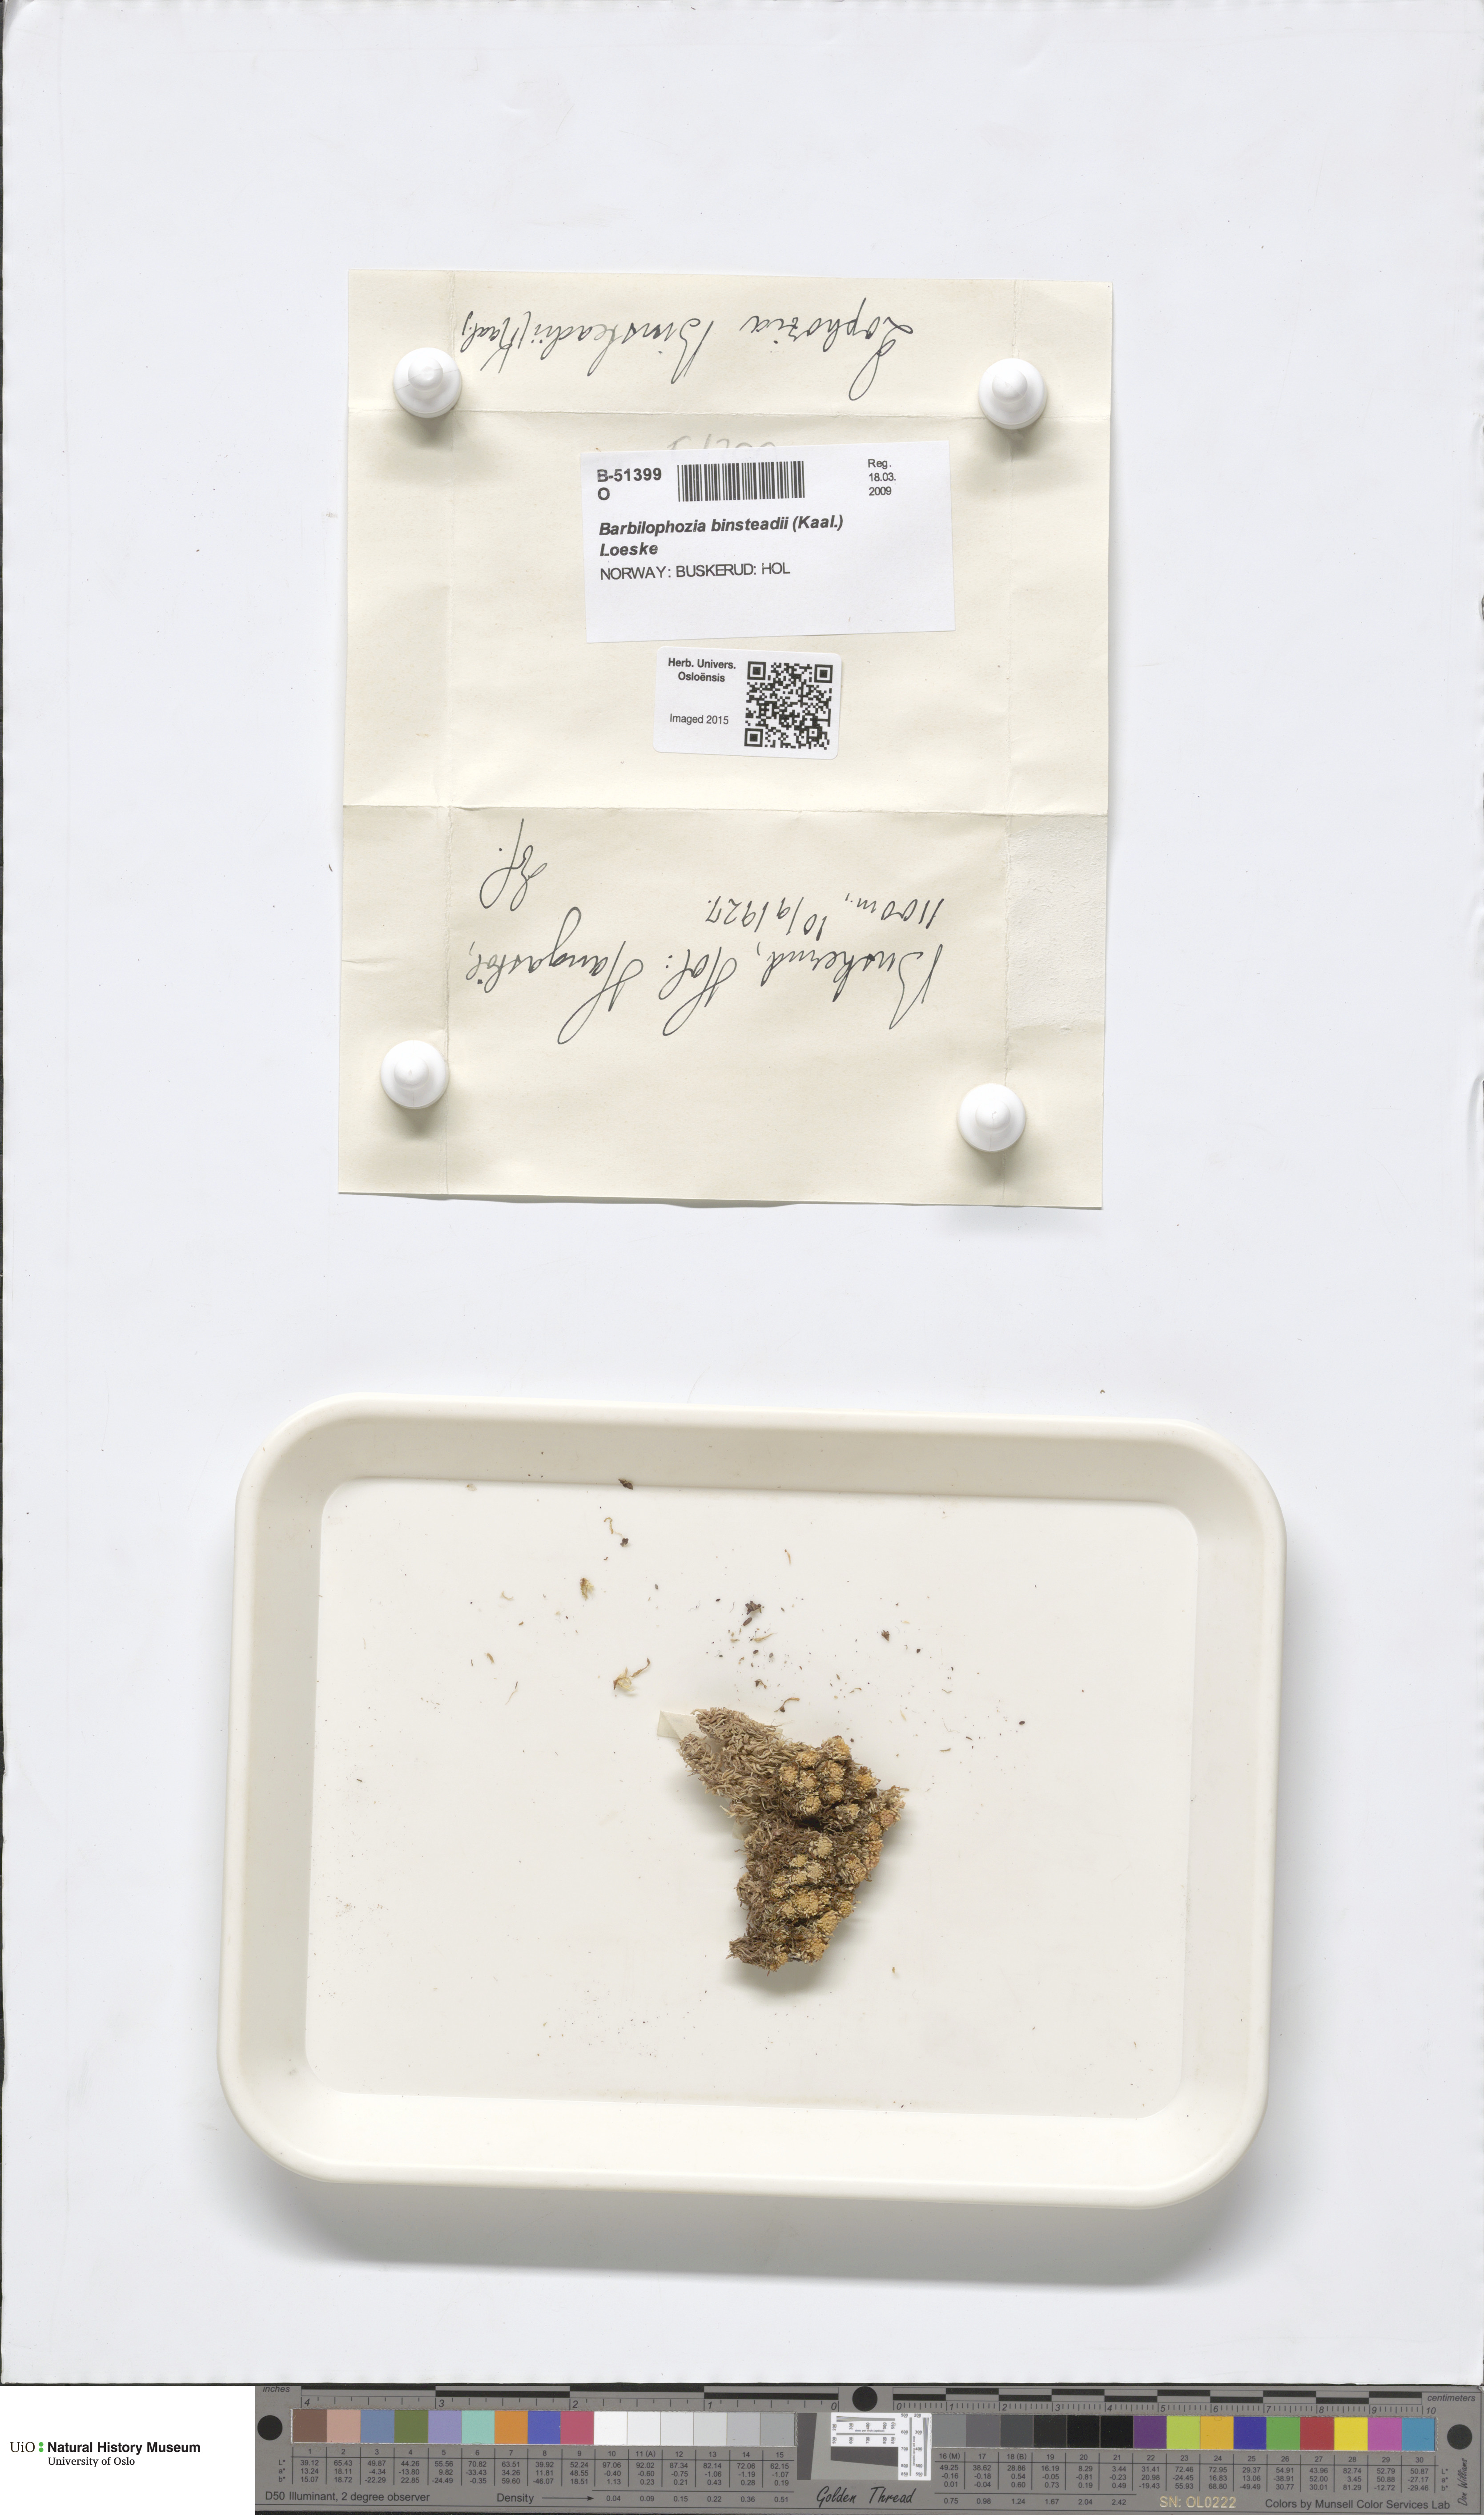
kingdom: Plantae
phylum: Marchantiophyta
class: Jungermanniopsida
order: Jungermanniales
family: Anastrophyllaceae
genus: Neoorthocaulis
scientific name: Neoorthocaulis binsteadii
